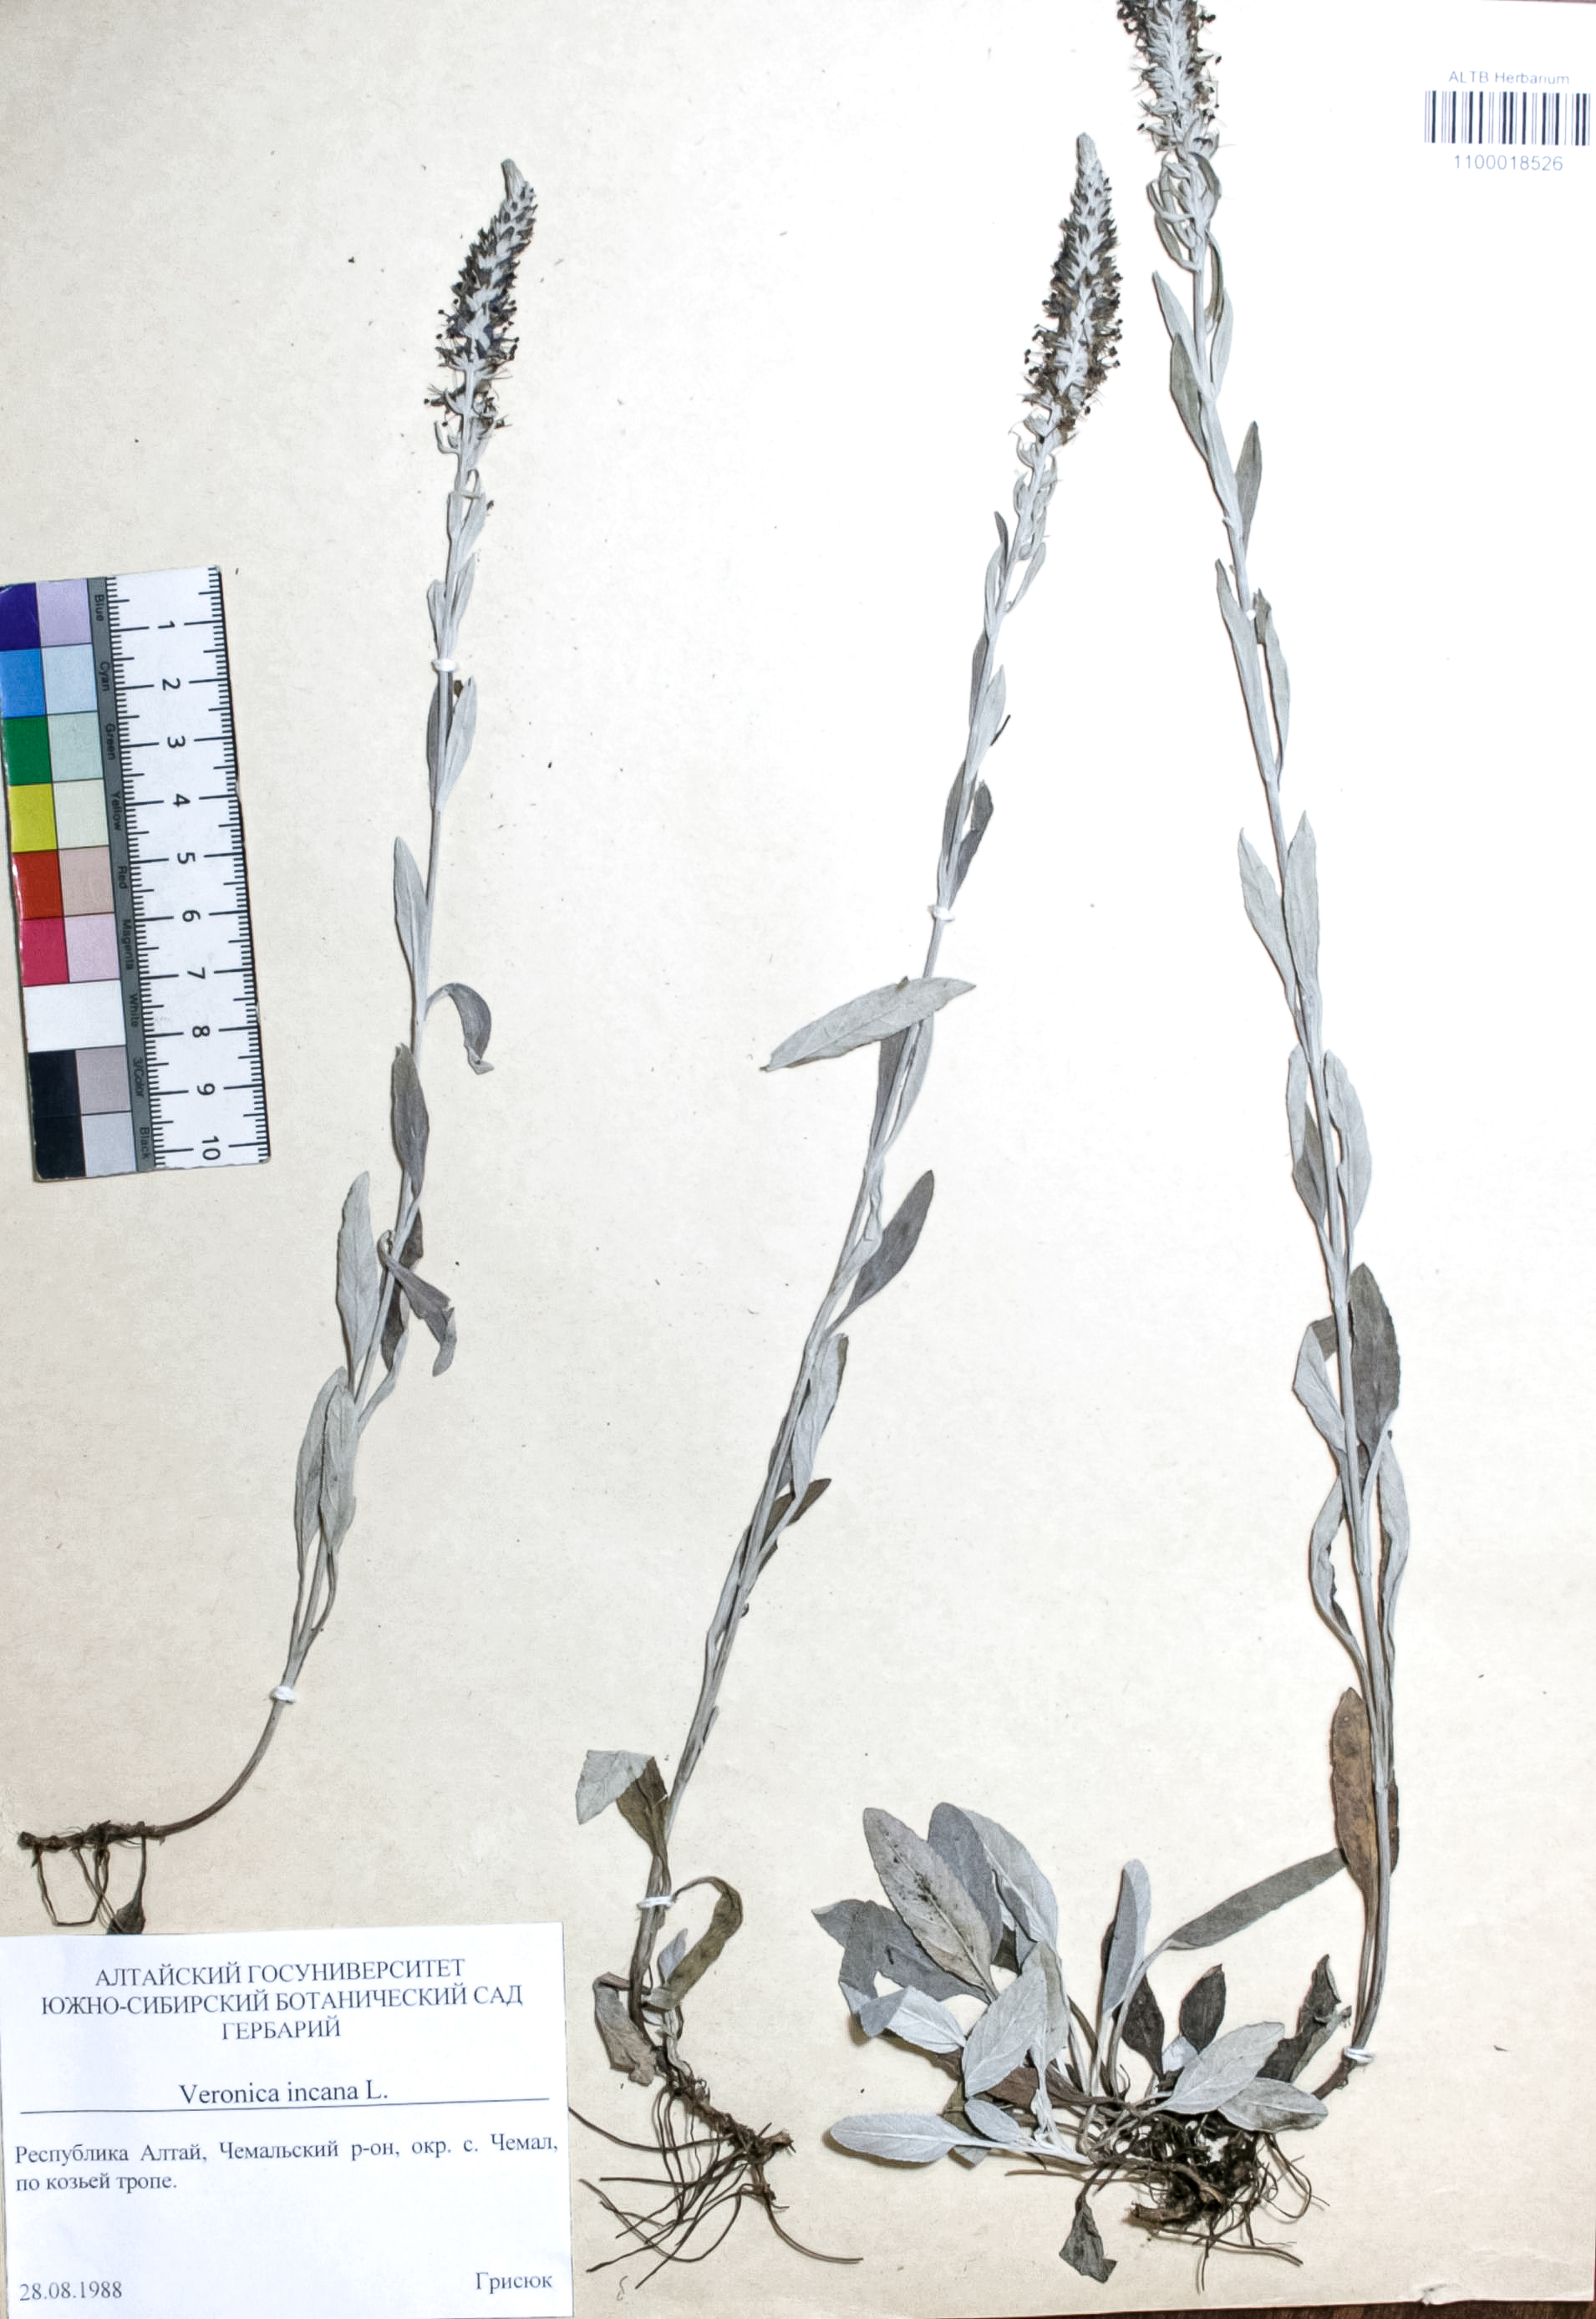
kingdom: Plantae
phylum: Tracheophyta
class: Magnoliopsida
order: Lamiales
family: Plantaginaceae
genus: Veronica
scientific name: Veronica incana
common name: Silver speedwell
